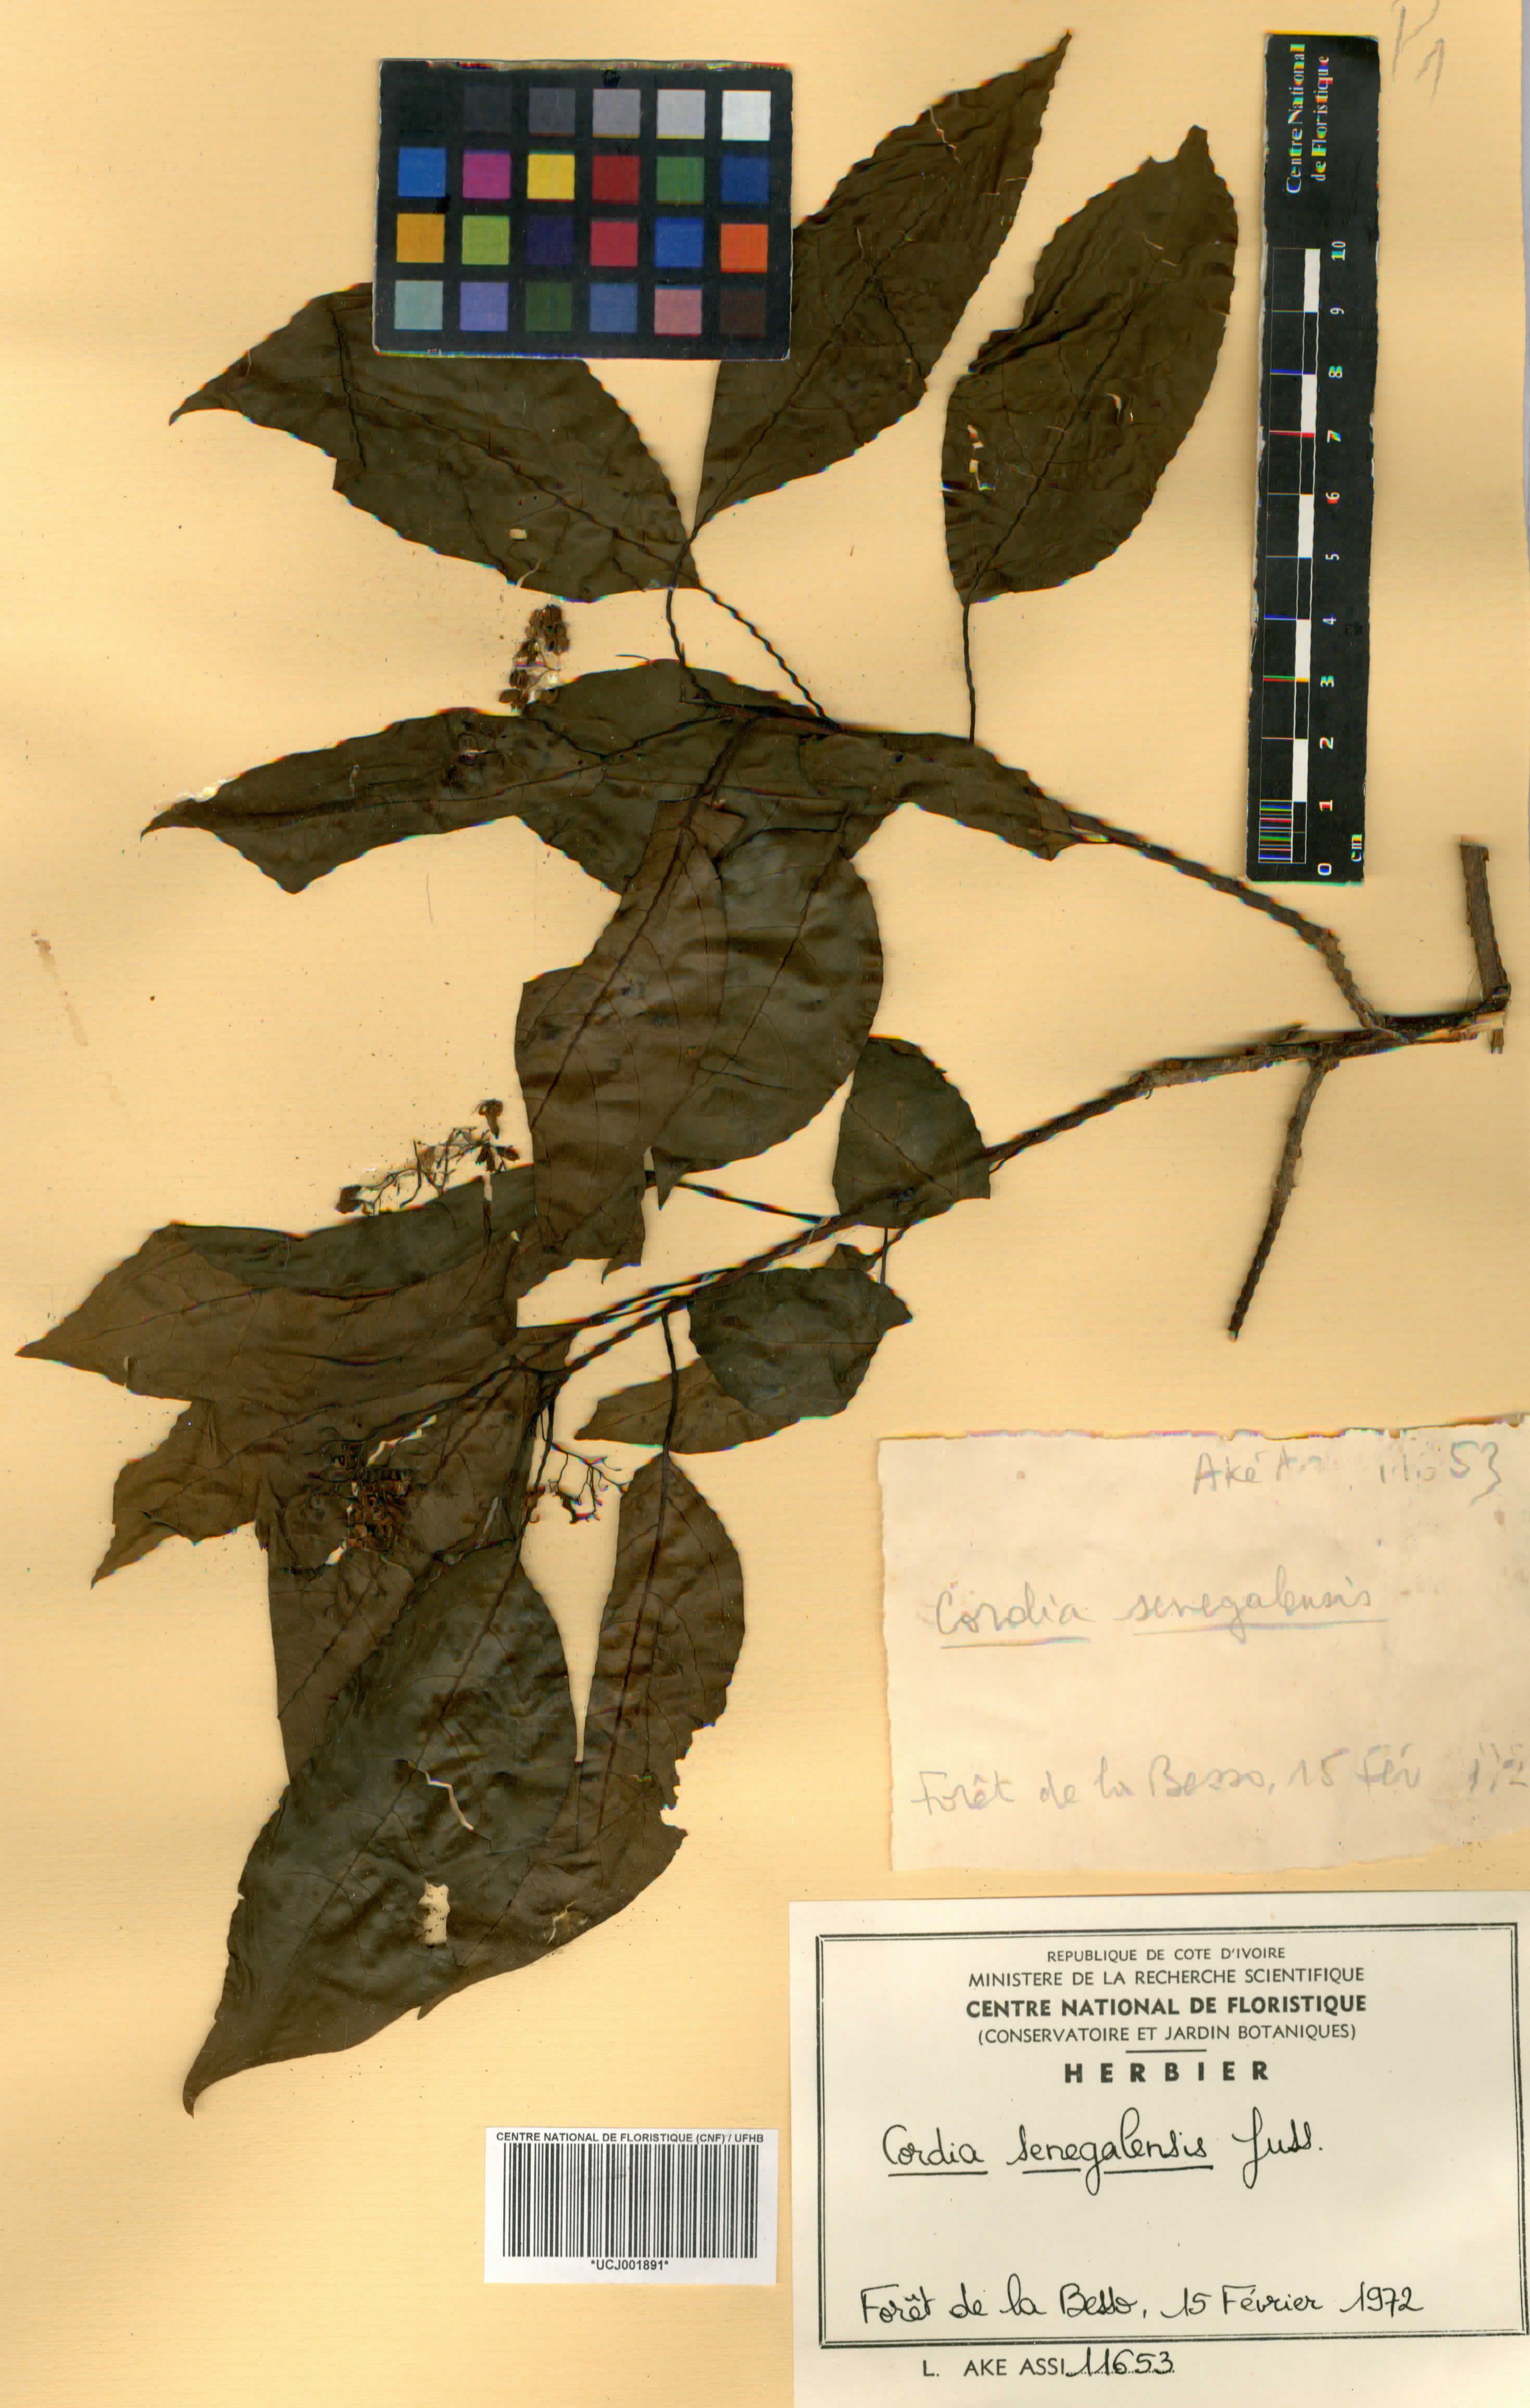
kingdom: Plantae
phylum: Tracheophyta
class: Magnoliopsida
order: Boraginales
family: Cordiaceae
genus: Cordia
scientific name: Cordia senegalensis
